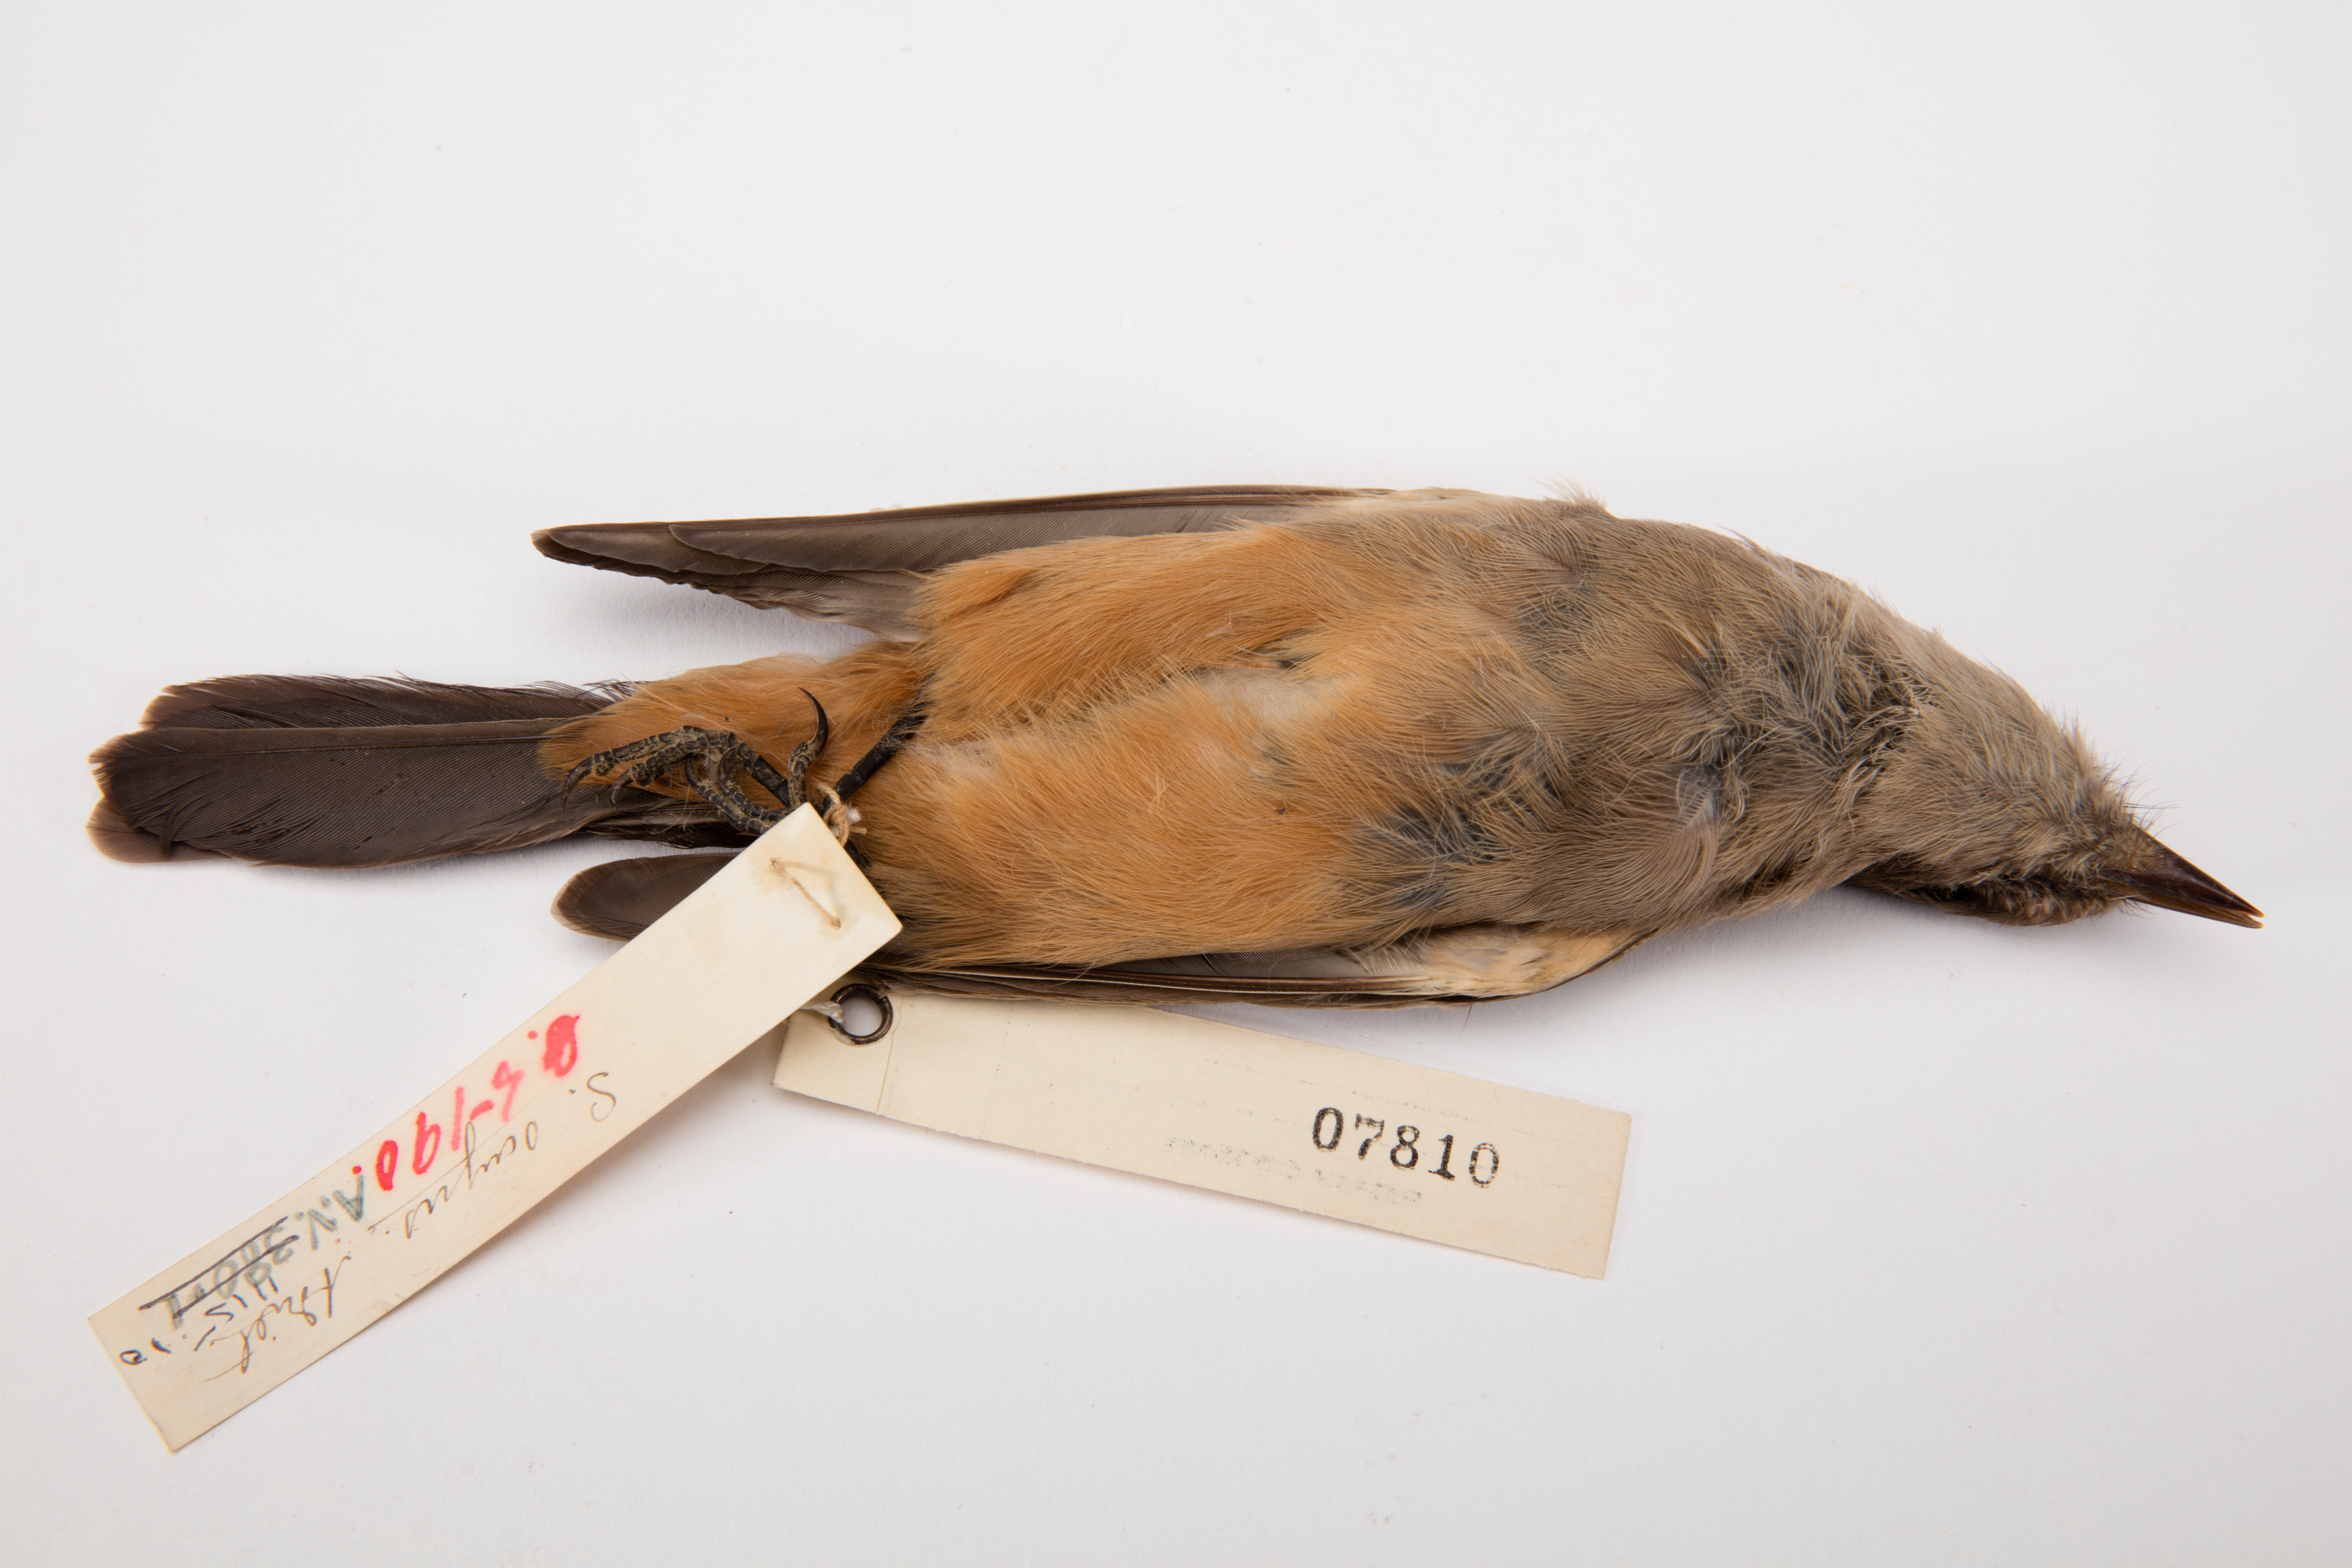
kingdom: Animalia
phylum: Chordata
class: Aves
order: Passeriformes
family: Tyrannidae
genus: Sayornis
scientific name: Sayornis saya
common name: Say's phoebe
